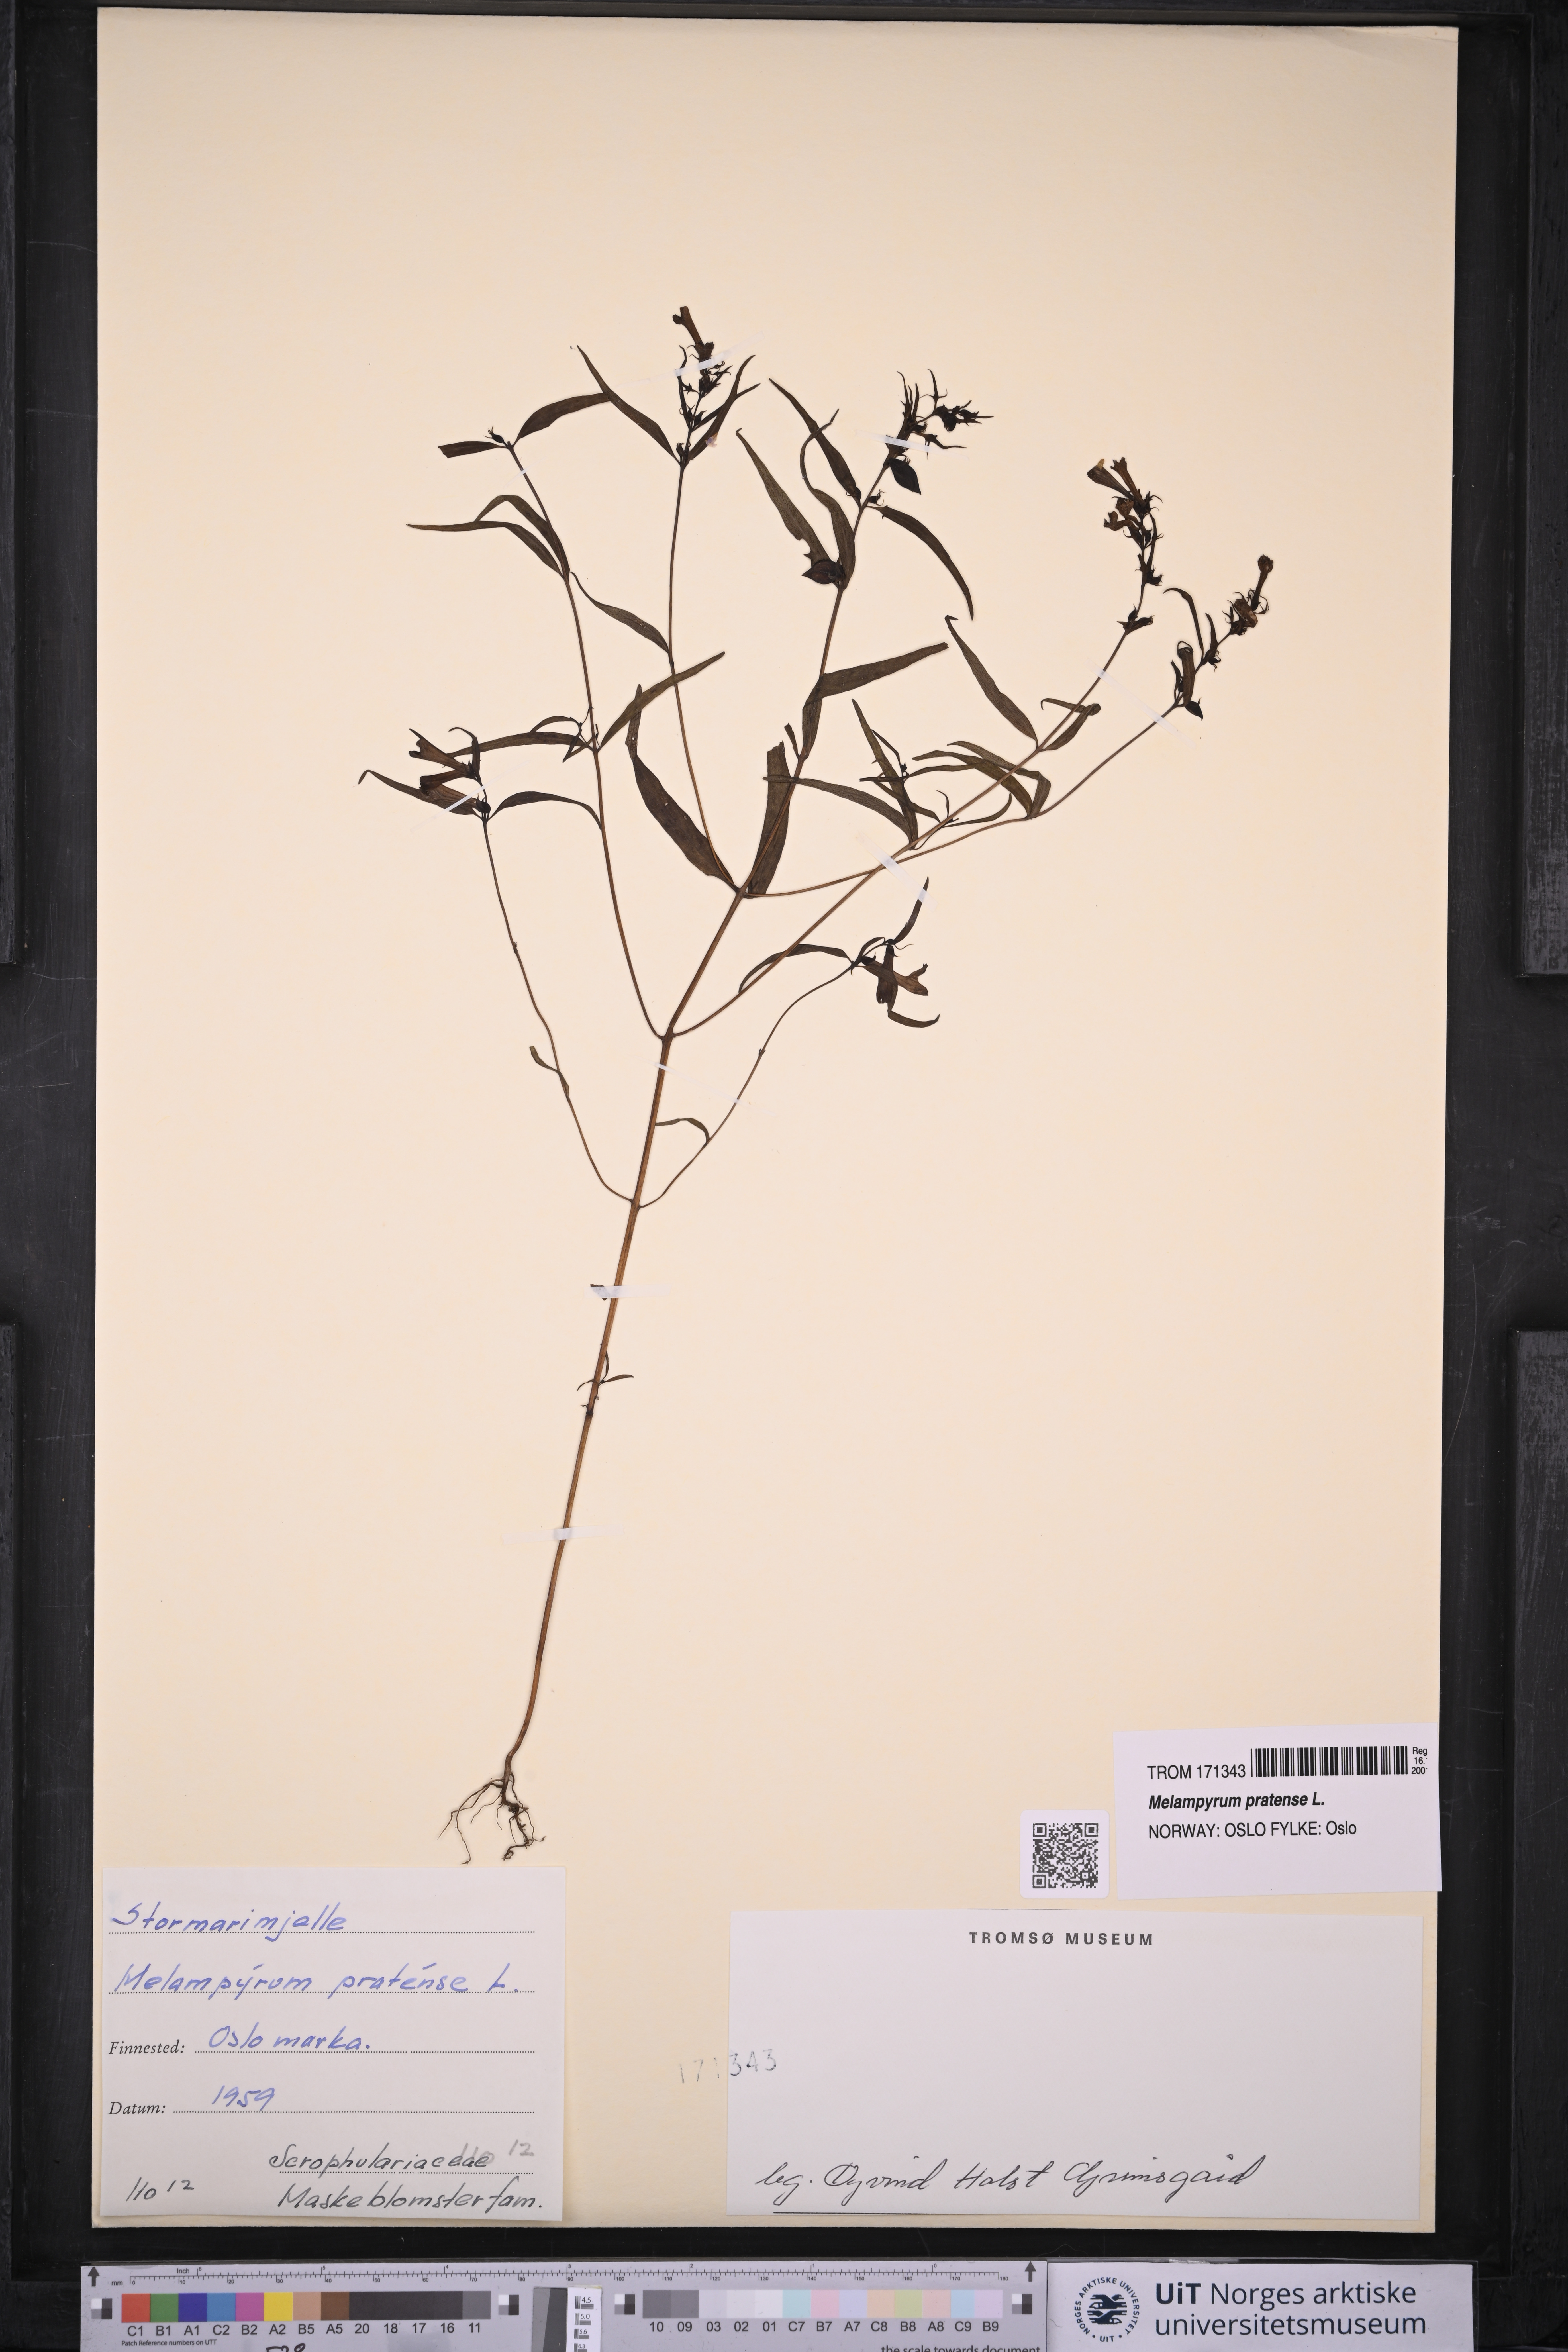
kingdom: Plantae
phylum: Tracheophyta
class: Magnoliopsida
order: Lamiales
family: Orobanchaceae
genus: Melampyrum
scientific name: Melampyrum pratense
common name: Common cow-wheat
